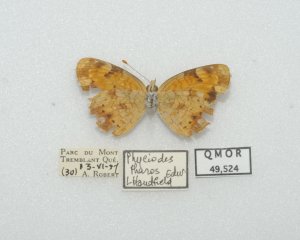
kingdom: Animalia
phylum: Arthropoda
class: Insecta
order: Lepidoptera
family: Nymphalidae
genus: Phyciodes
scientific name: Phyciodes tharos
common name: Northern Crescent
